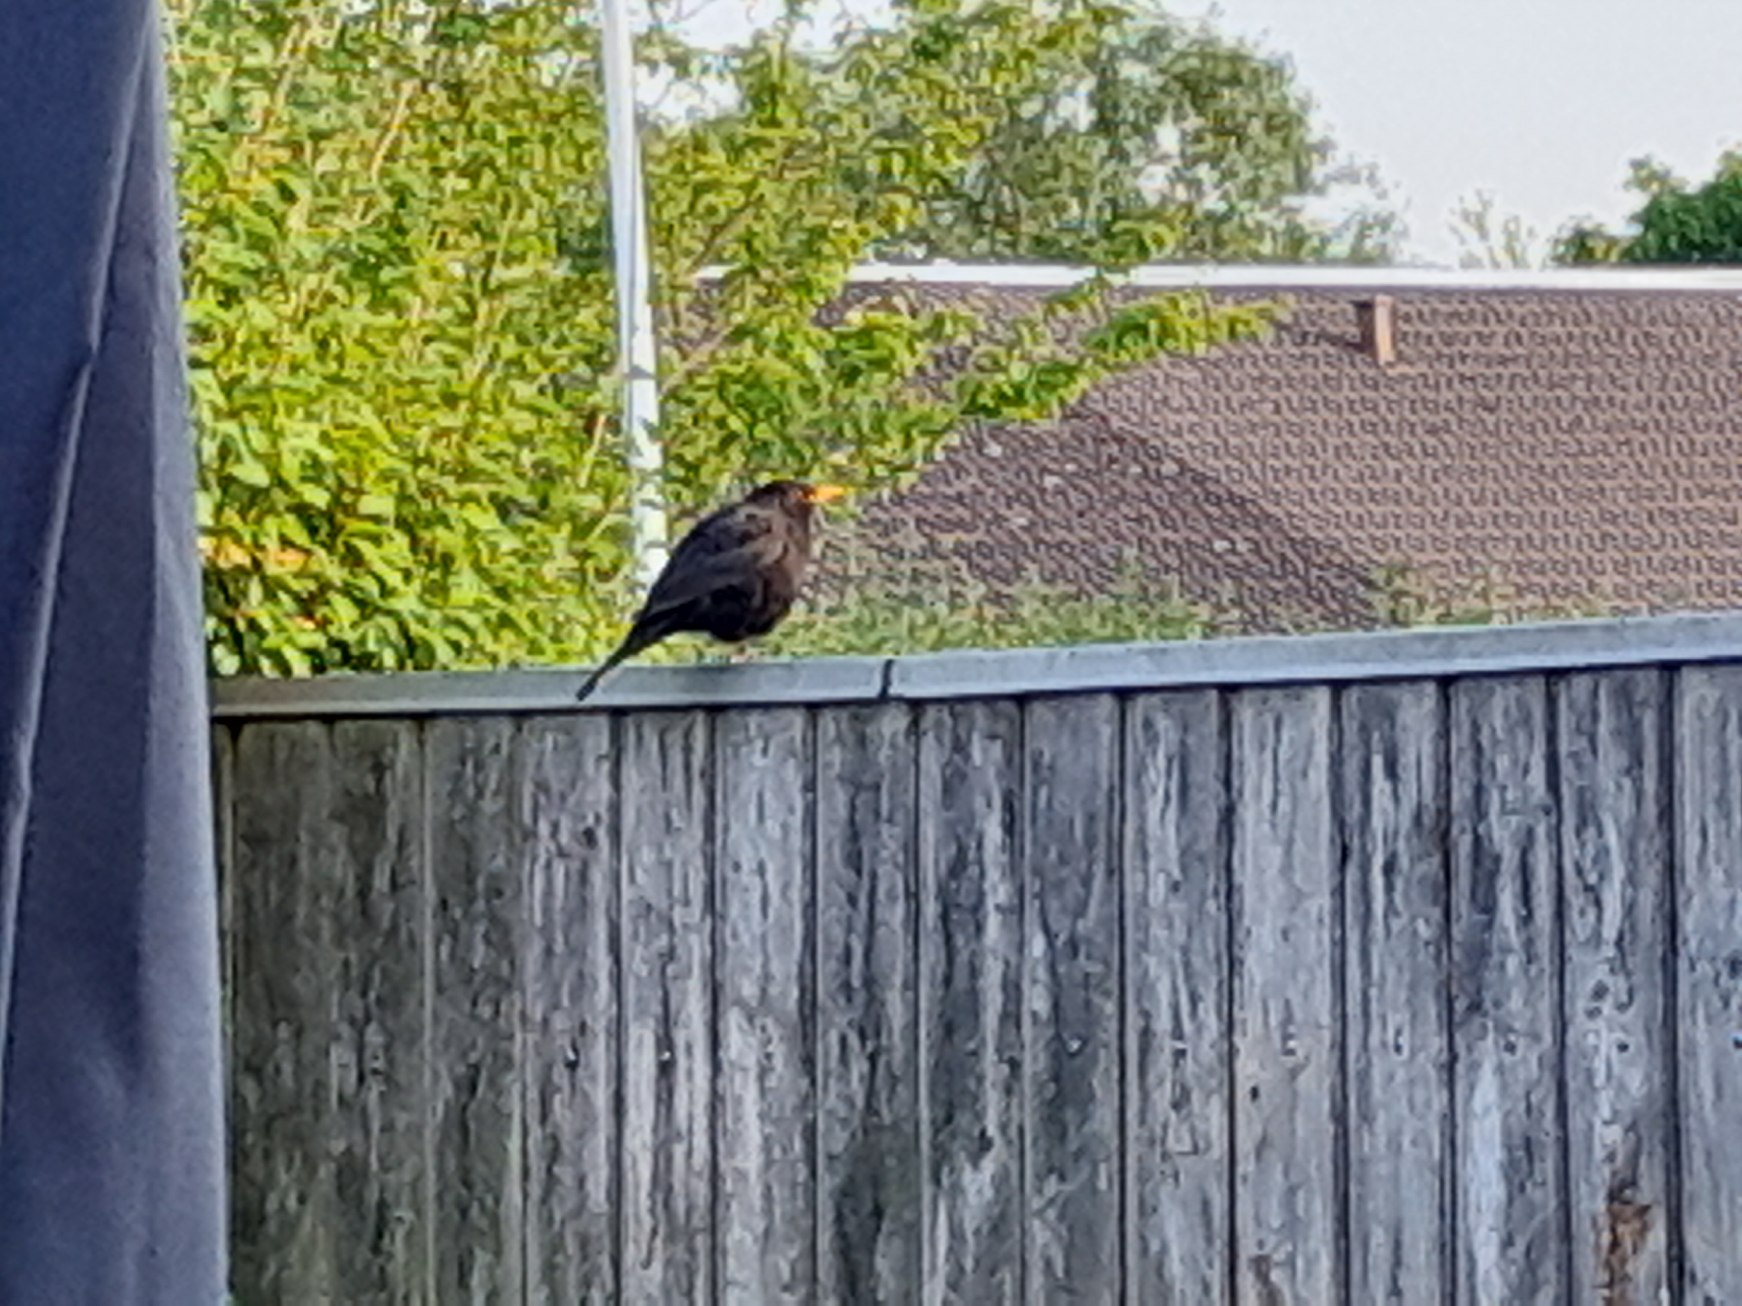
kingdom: Animalia
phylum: Chordata
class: Aves
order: Passeriformes
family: Turdidae
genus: Turdus
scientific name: Turdus merula
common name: Solsort
